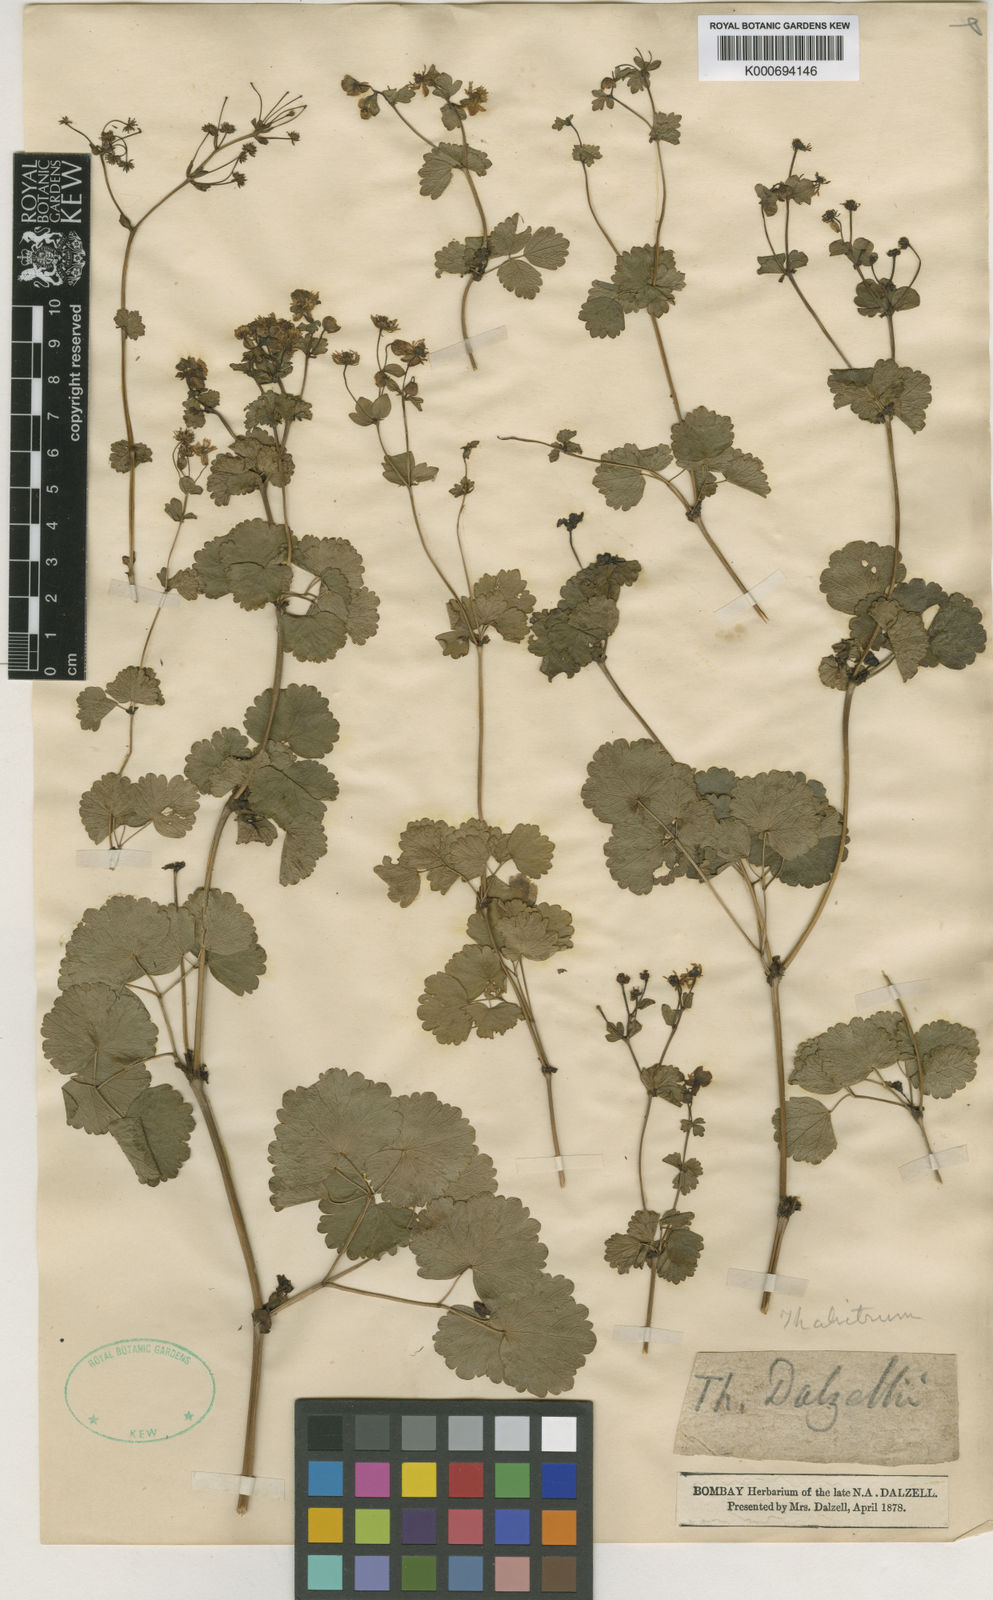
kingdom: Plantae
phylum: Tracheophyta
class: Magnoliopsida
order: Ranunculales
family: Ranunculaceae
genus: Thalictrum
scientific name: Thalictrum dalzellii
